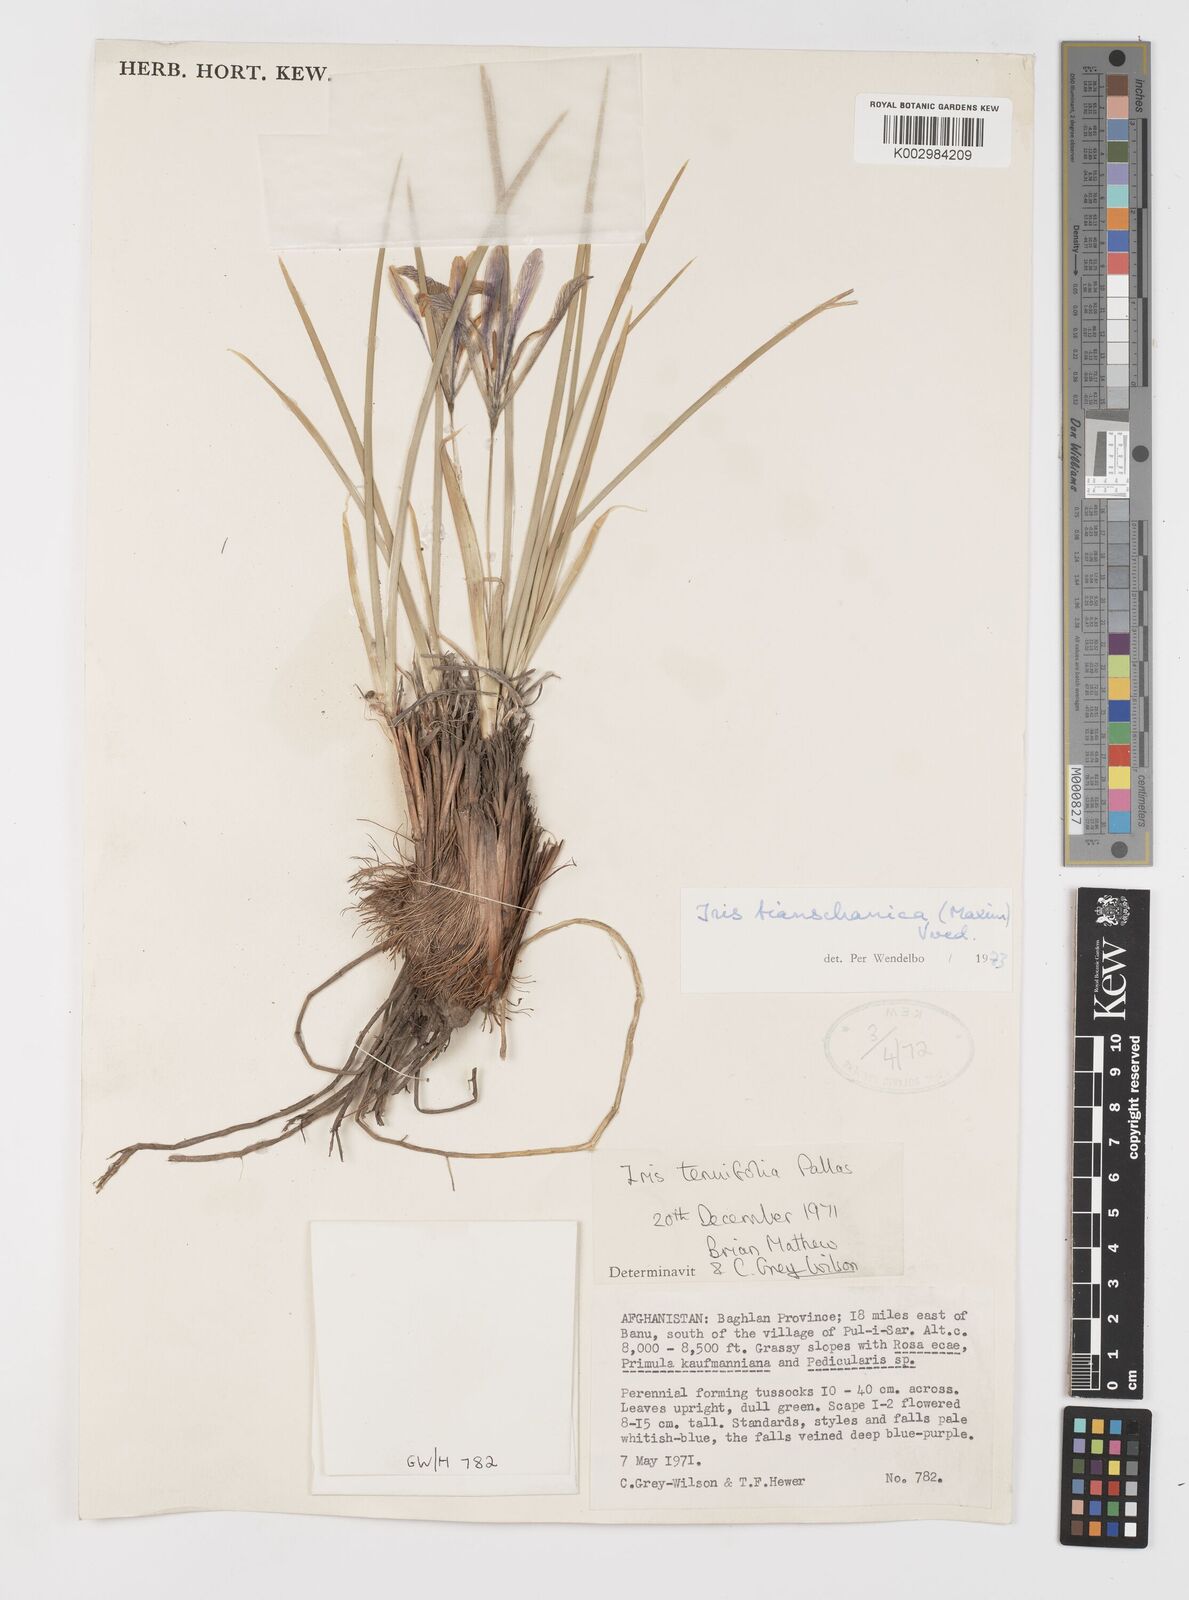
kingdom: Plantae
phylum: Tracheophyta
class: Liliopsida
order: Asparagales
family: Iridaceae
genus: Iris
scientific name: Iris loczyi
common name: Tian shan mountain iris
